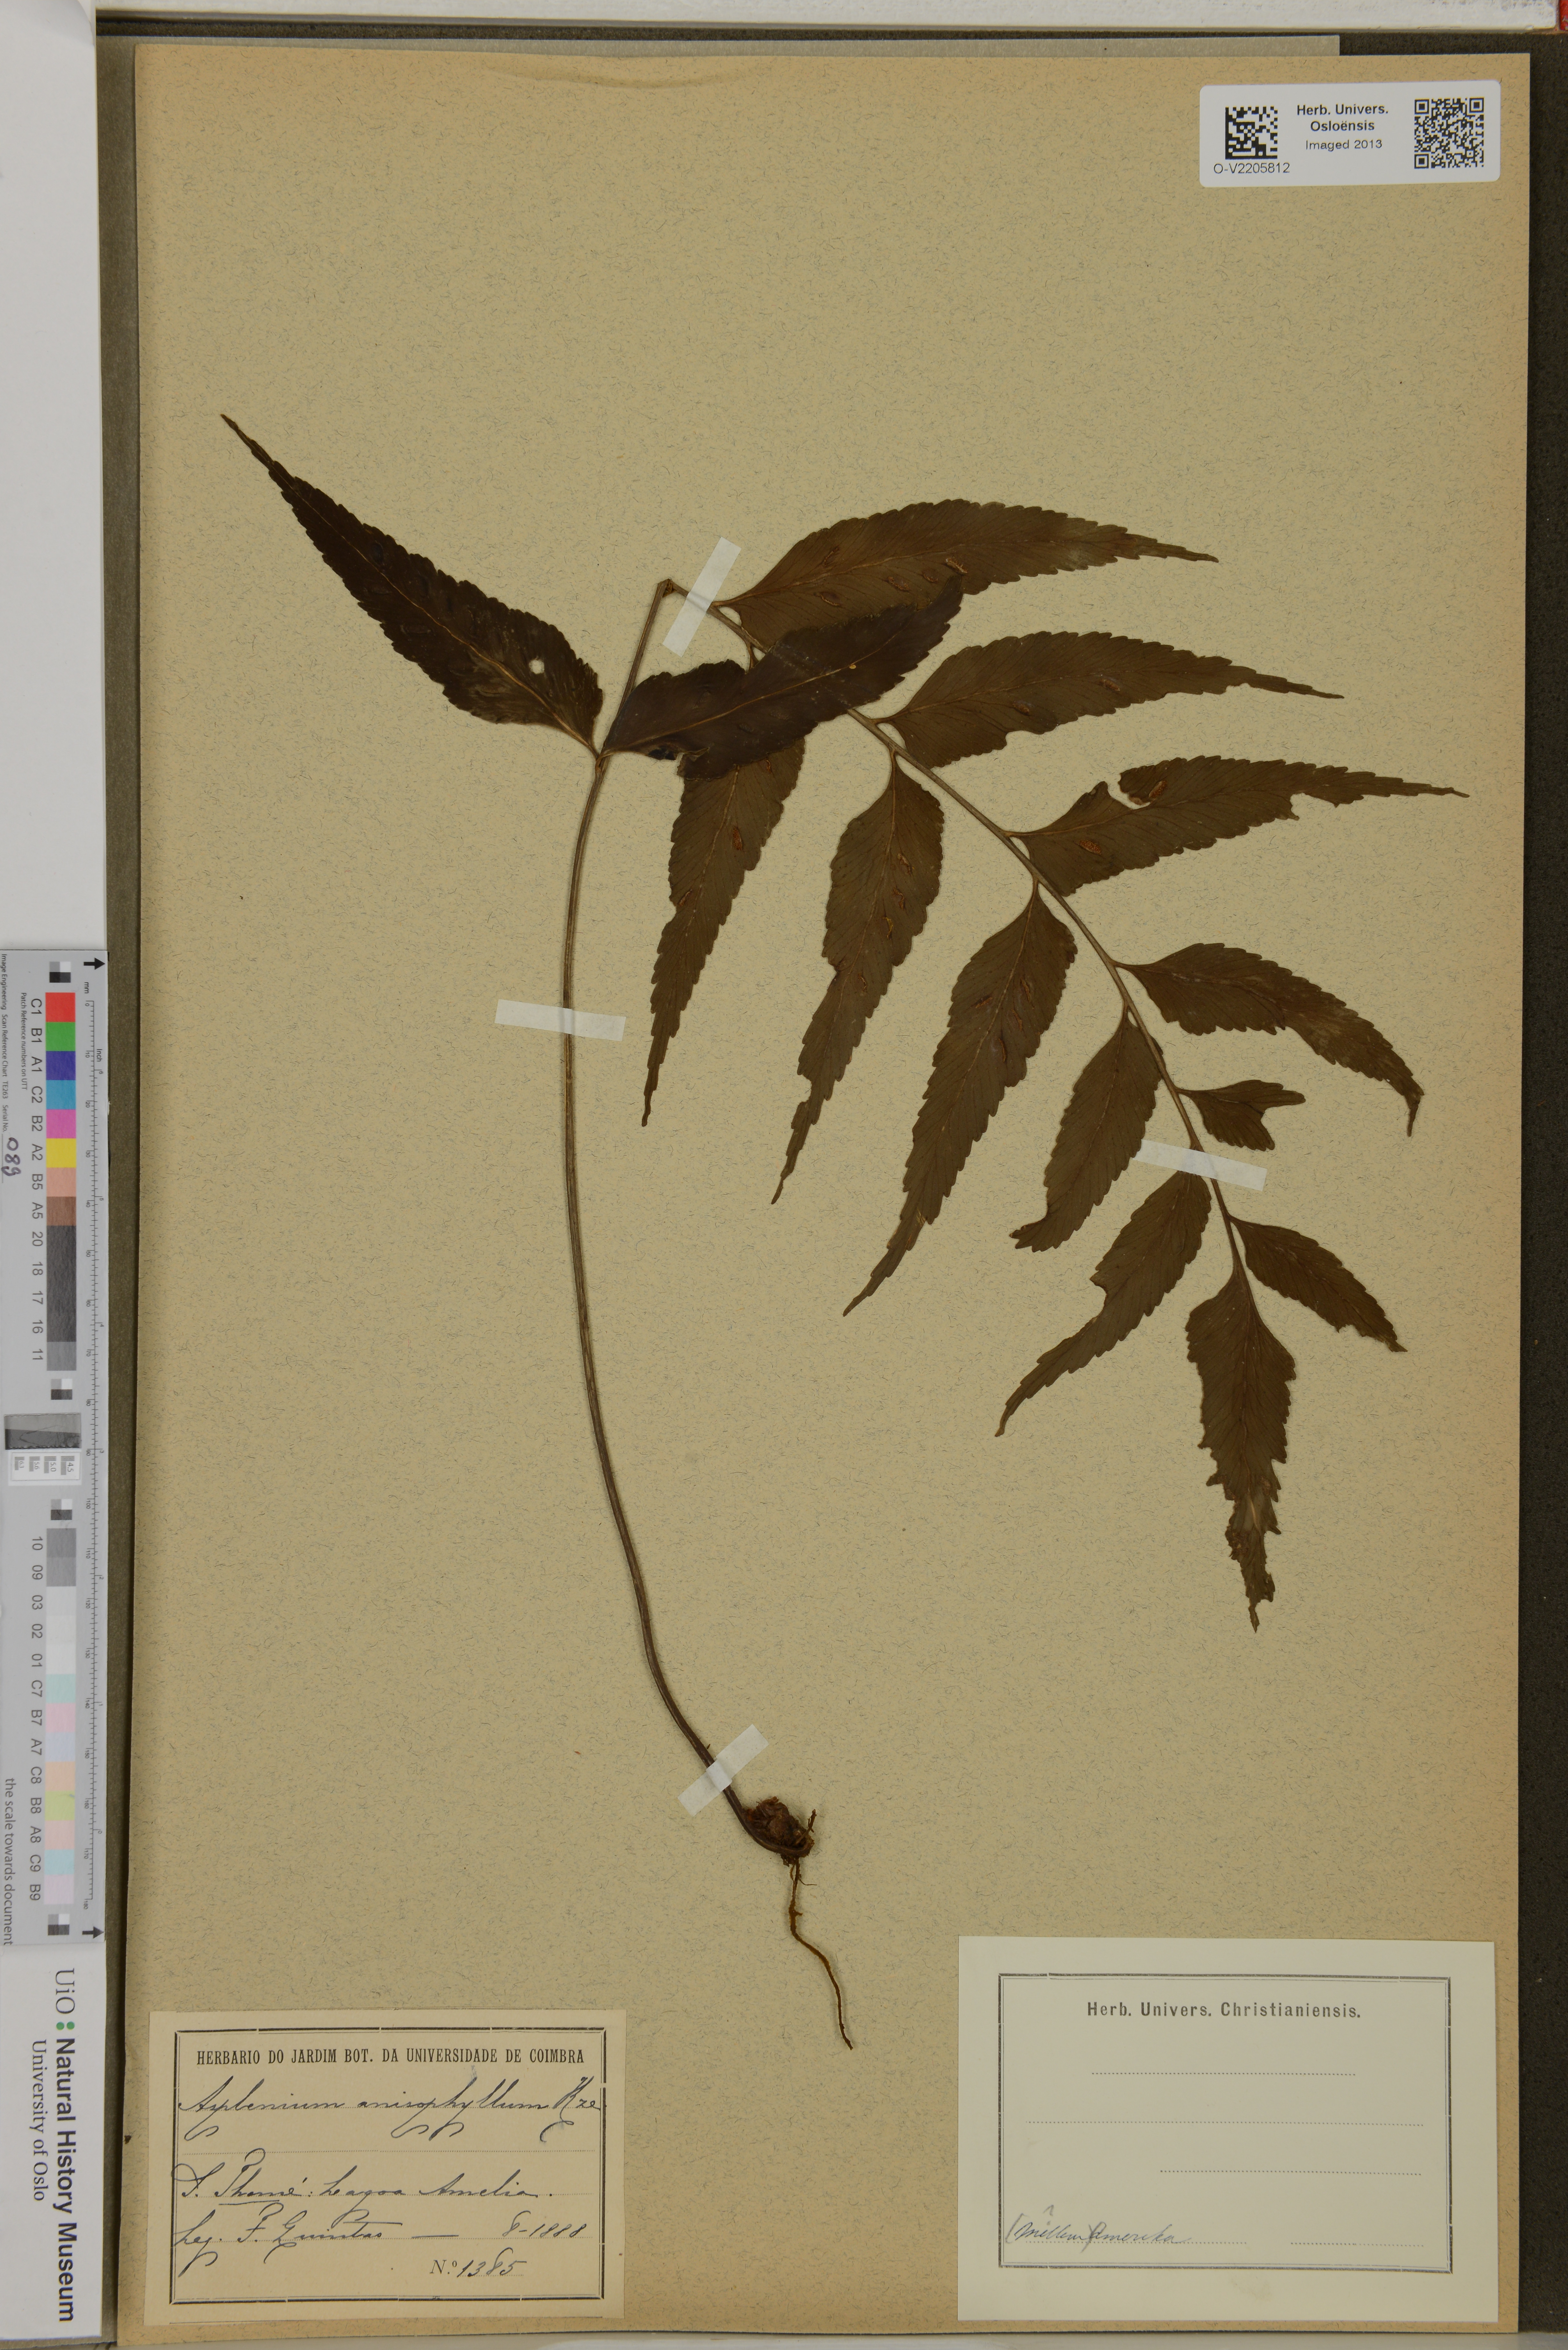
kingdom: Plantae
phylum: Tracheophyta
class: Polypodiopsida
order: Polypodiales
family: Aspleniaceae
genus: Asplenium
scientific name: Asplenium anisophyllum
